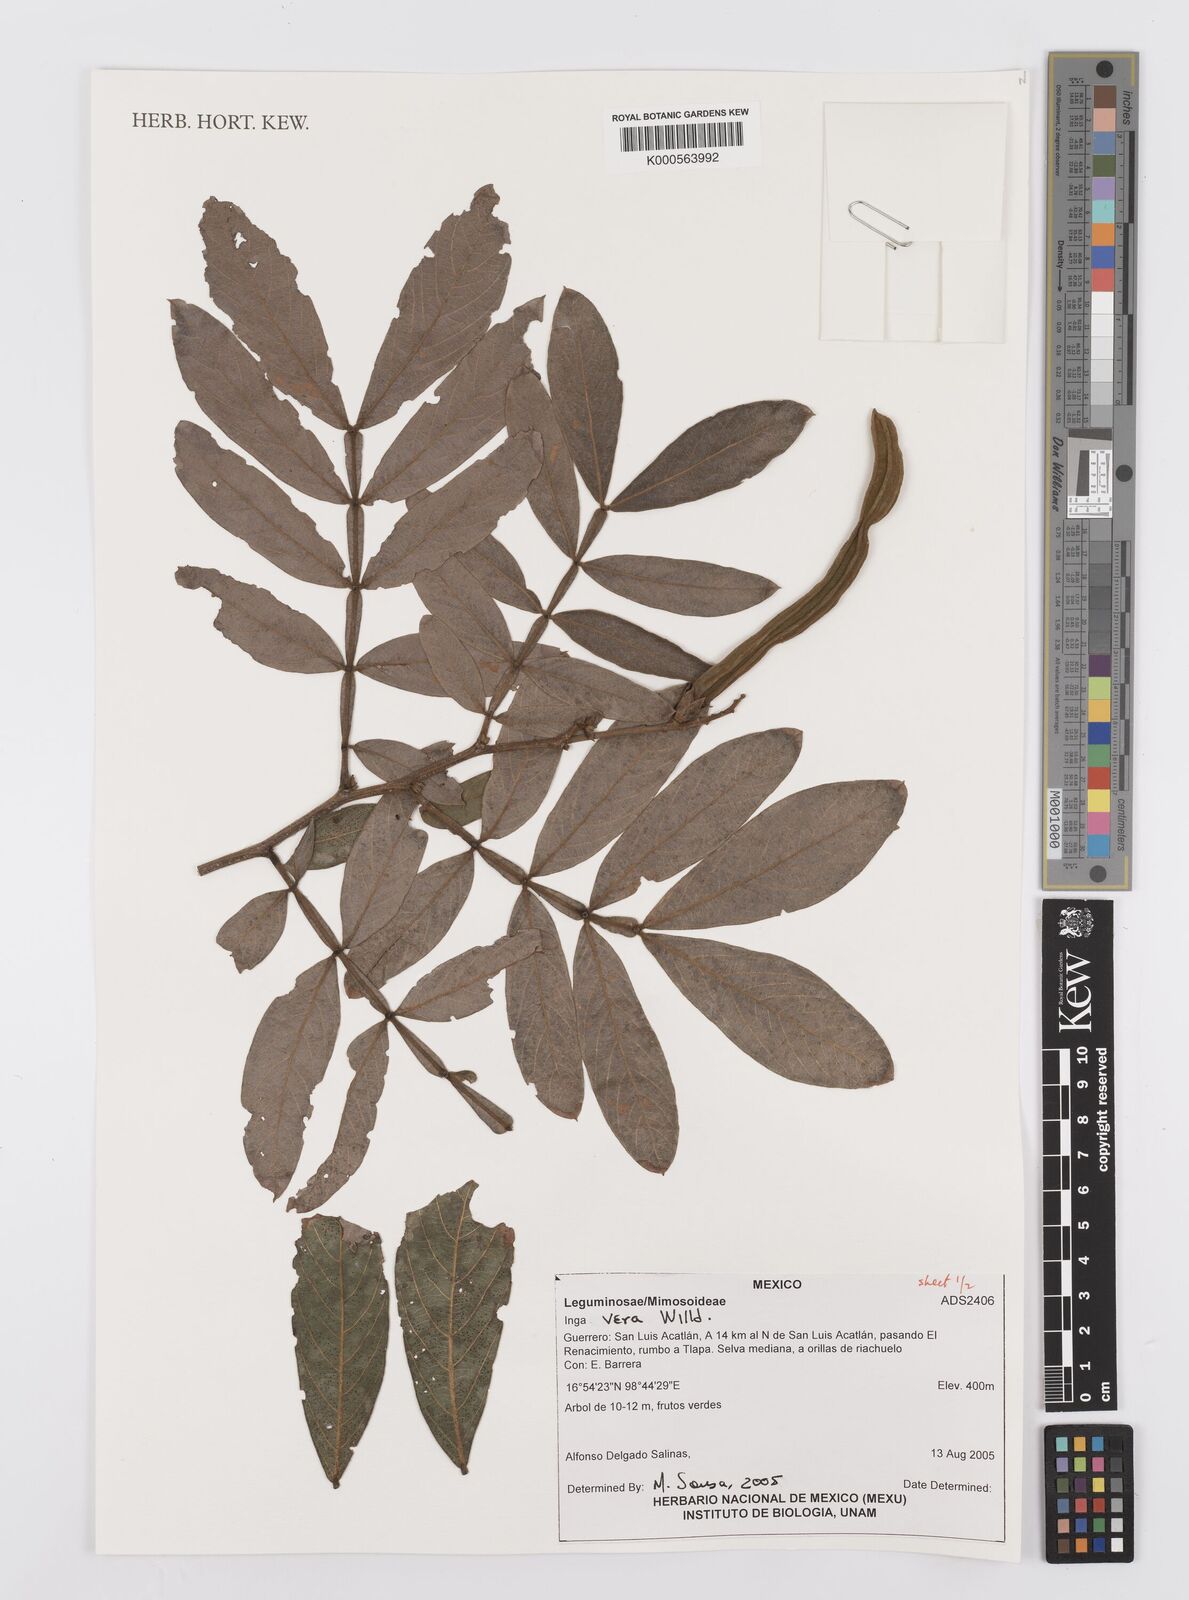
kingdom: Plantae
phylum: Tracheophyta
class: Magnoliopsida
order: Fabales
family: Fabaceae
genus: Inga
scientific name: Inga vera
